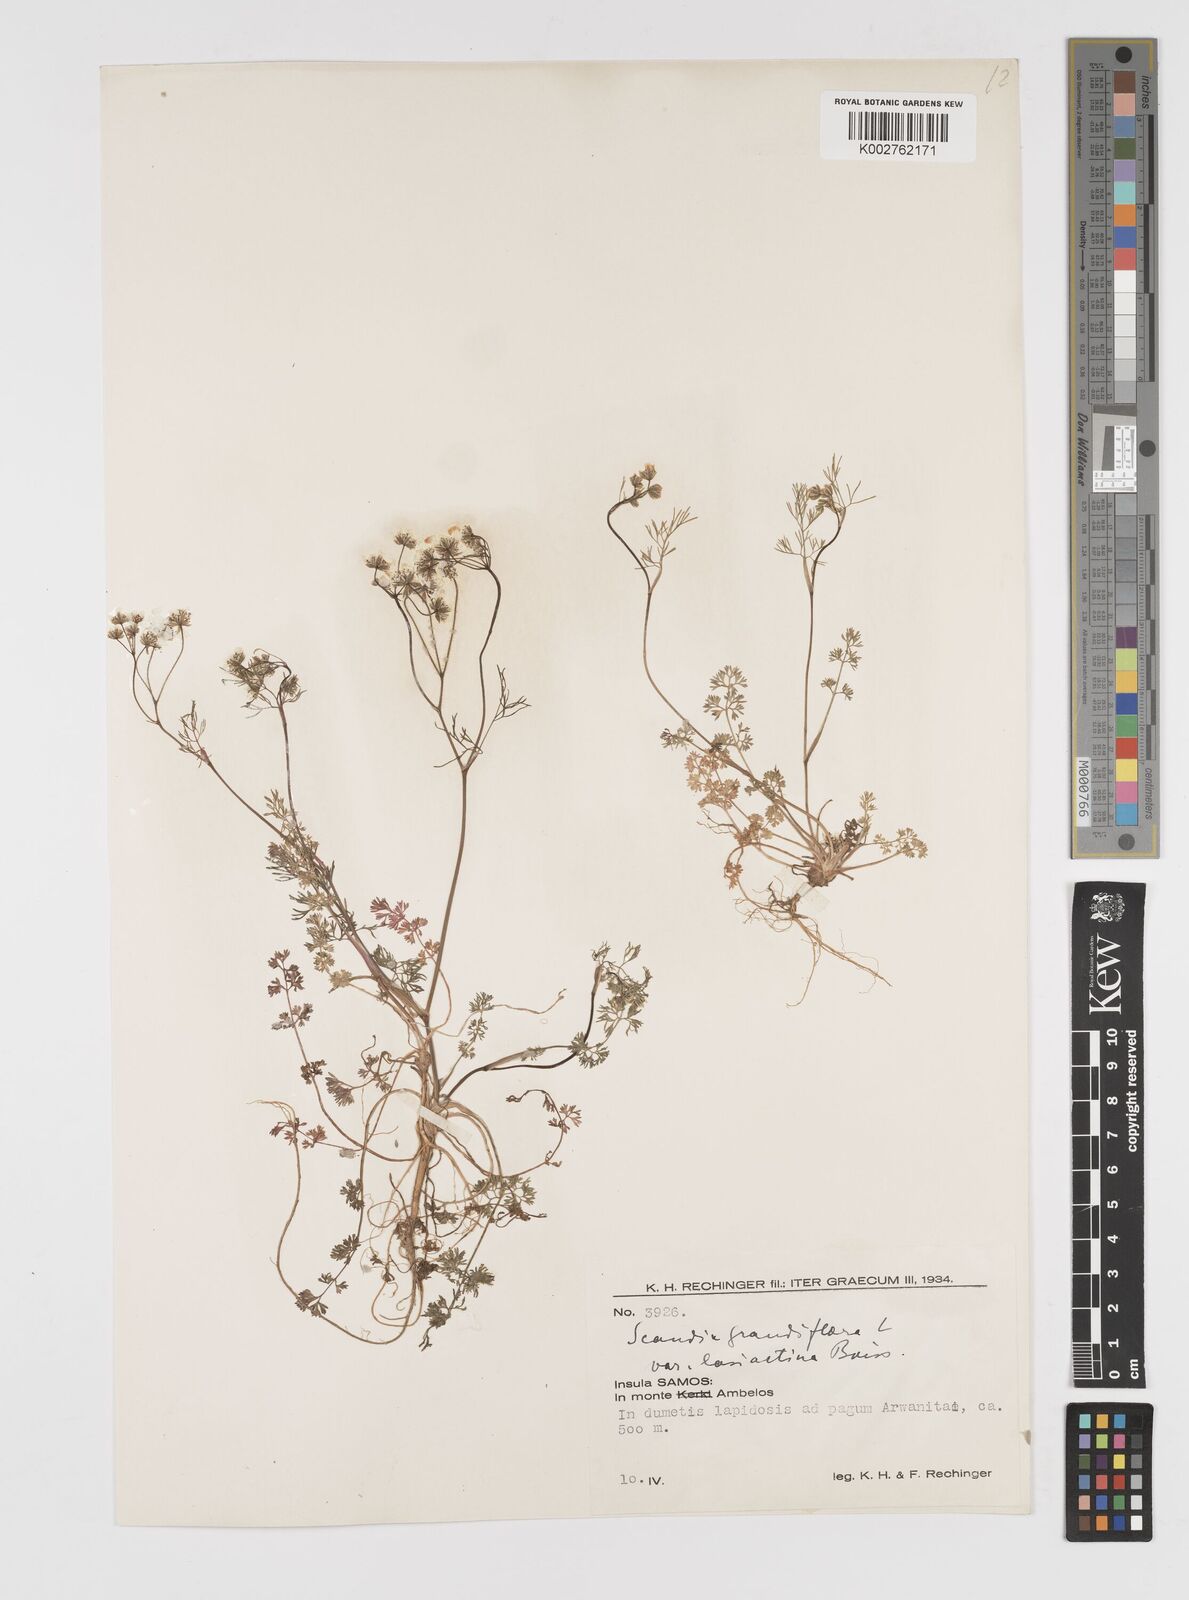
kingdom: Plantae
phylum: Tracheophyta
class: Magnoliopsida
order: Apiales
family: Apiaceae
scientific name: Apiaceae
